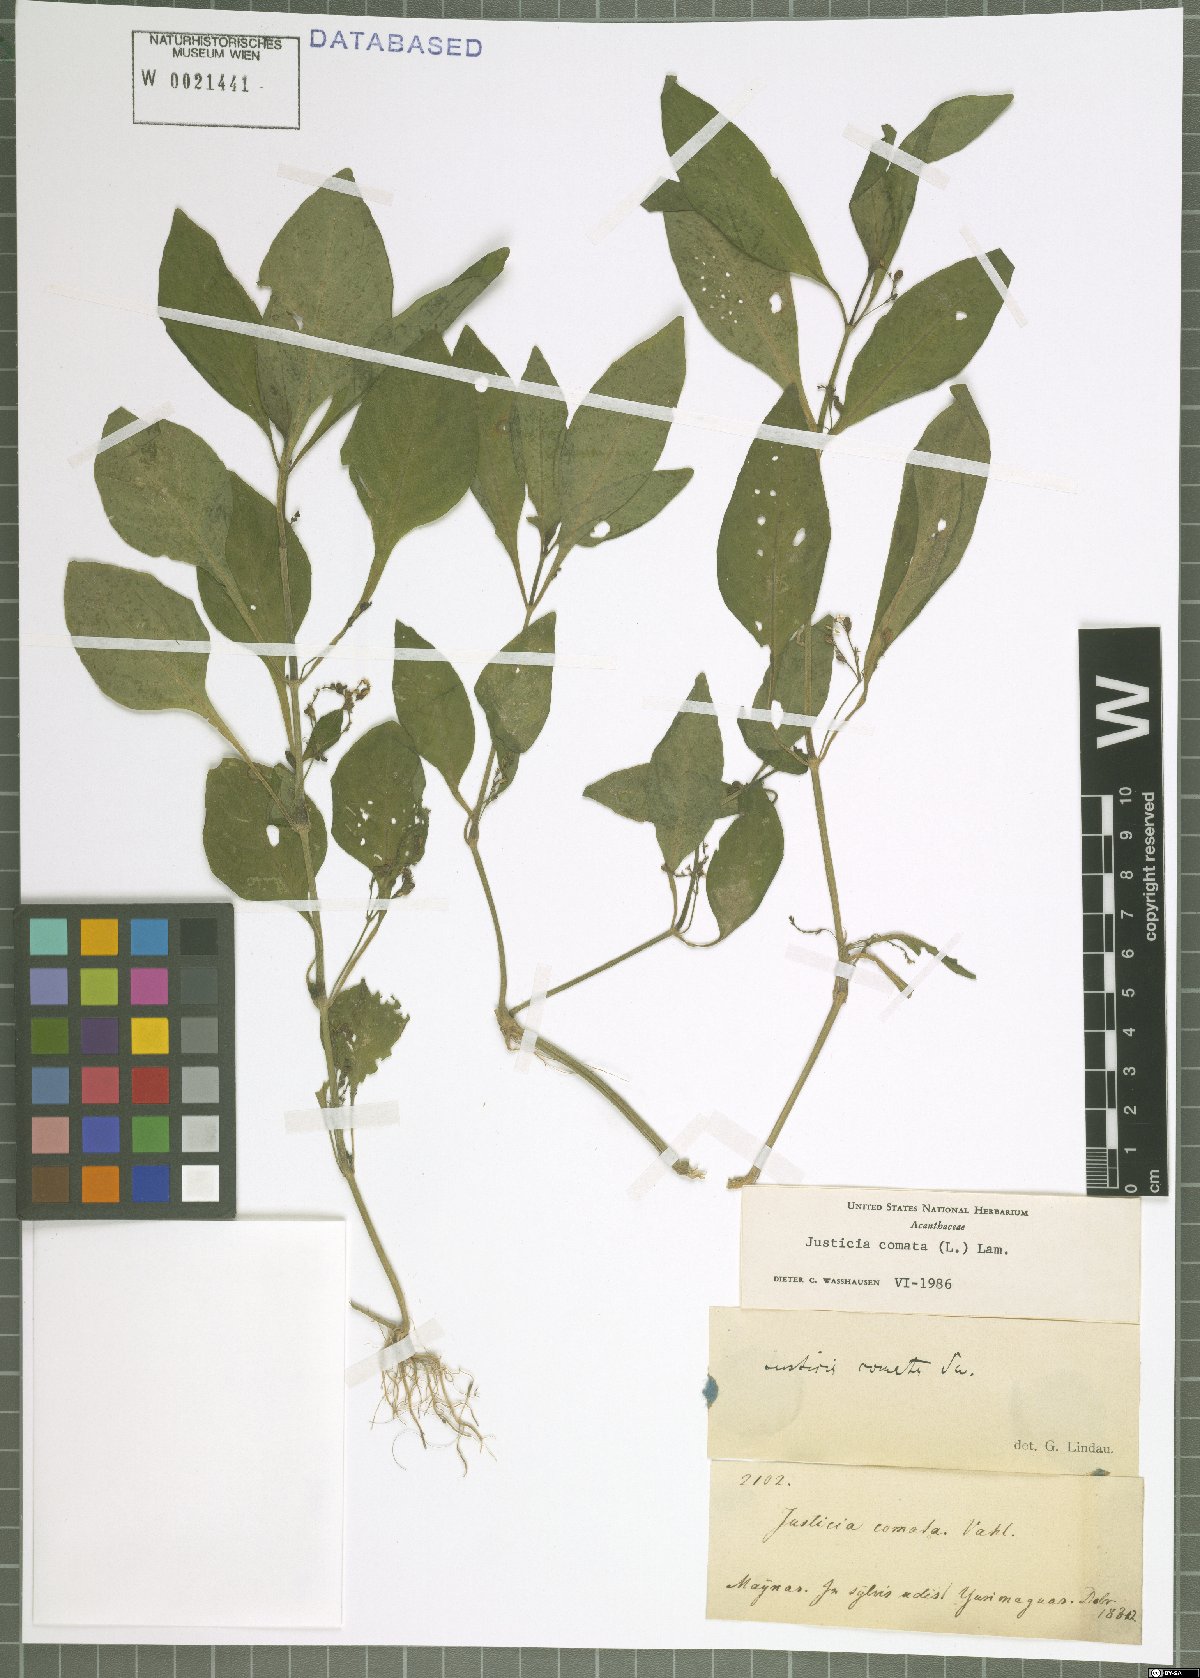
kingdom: Plantae
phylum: Tracheophyta
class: Magnoliopsida
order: Lamiales
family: Acanthaceae
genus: Dianthera
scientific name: Dianthera comata
